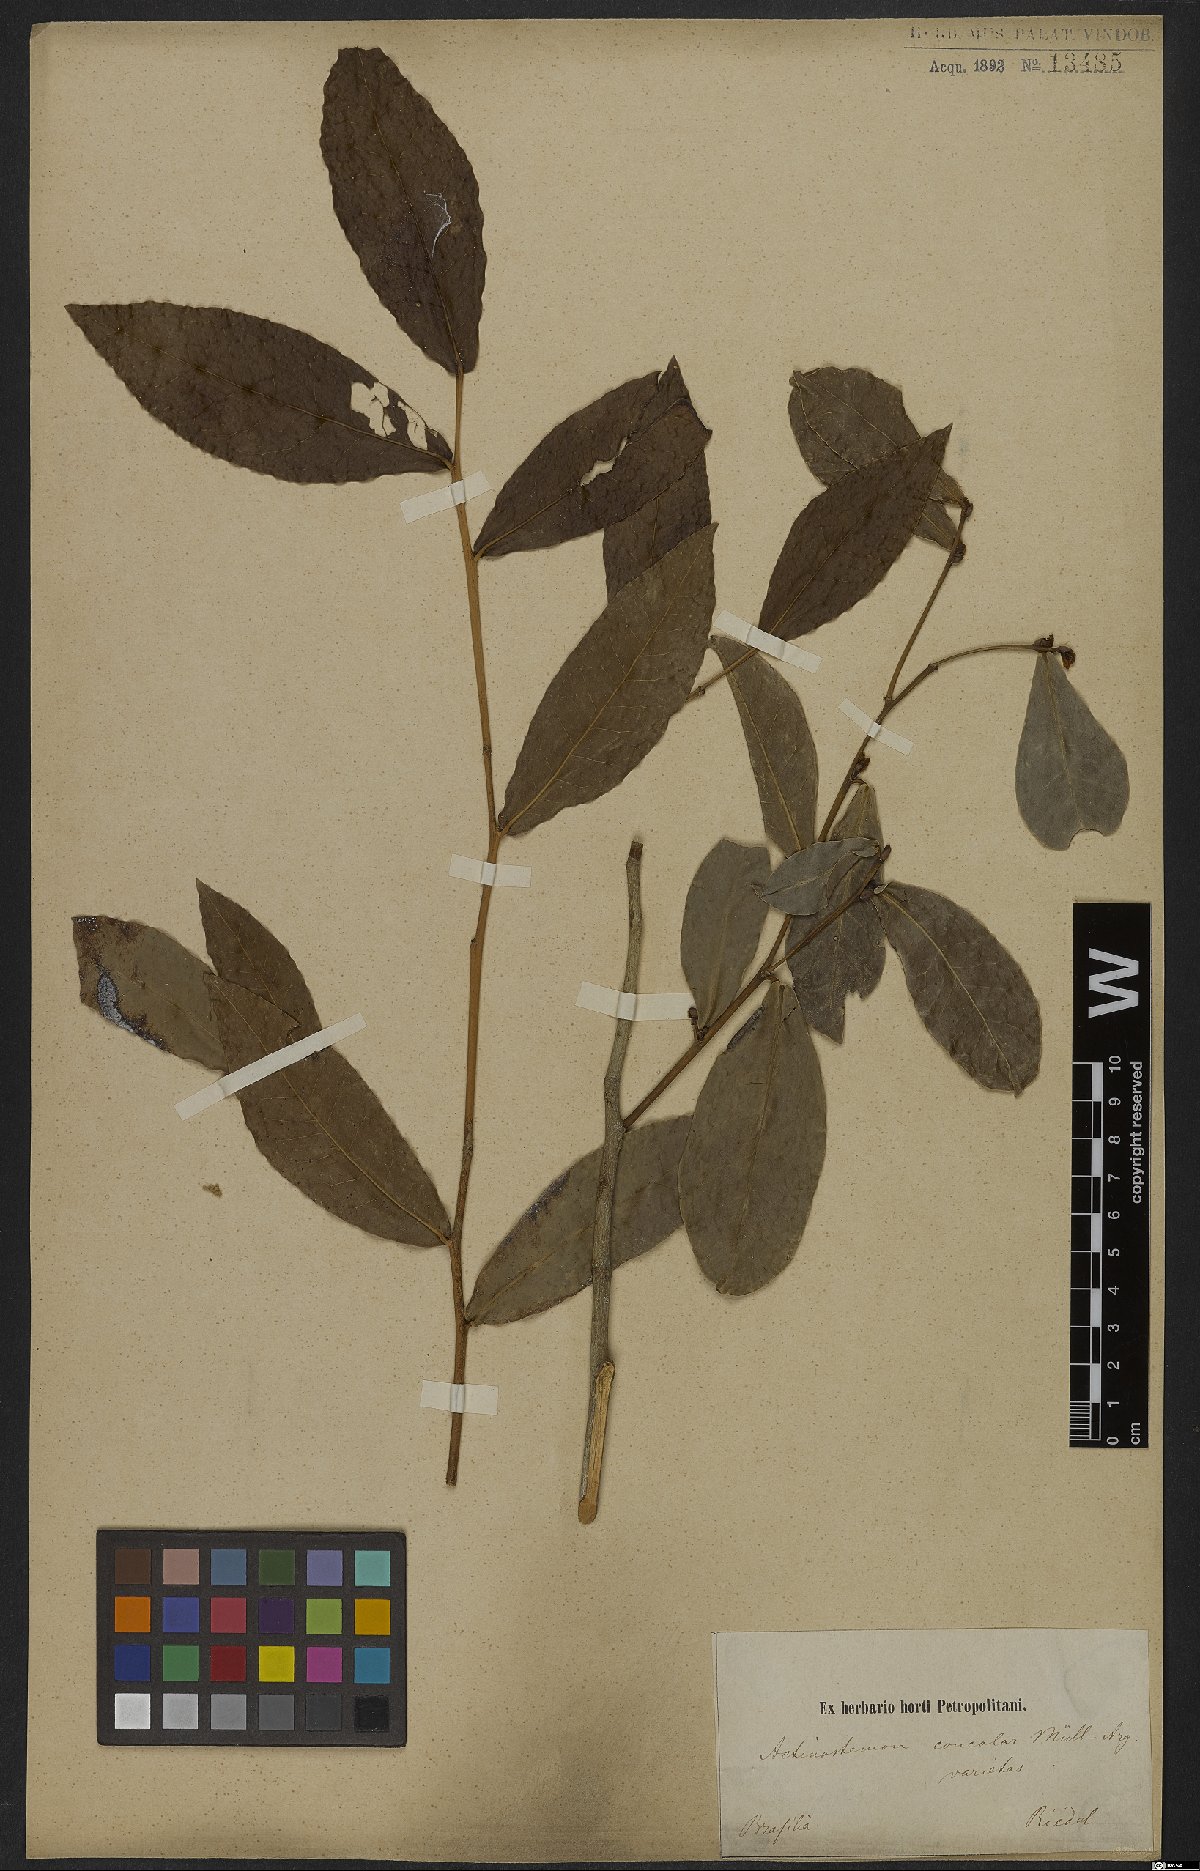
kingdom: Plantae
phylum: Tracheophyta
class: Magnoliopsida
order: Malpighiales
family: Euphorbiaceae
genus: Actinostemon
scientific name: Actinostemon concolor
